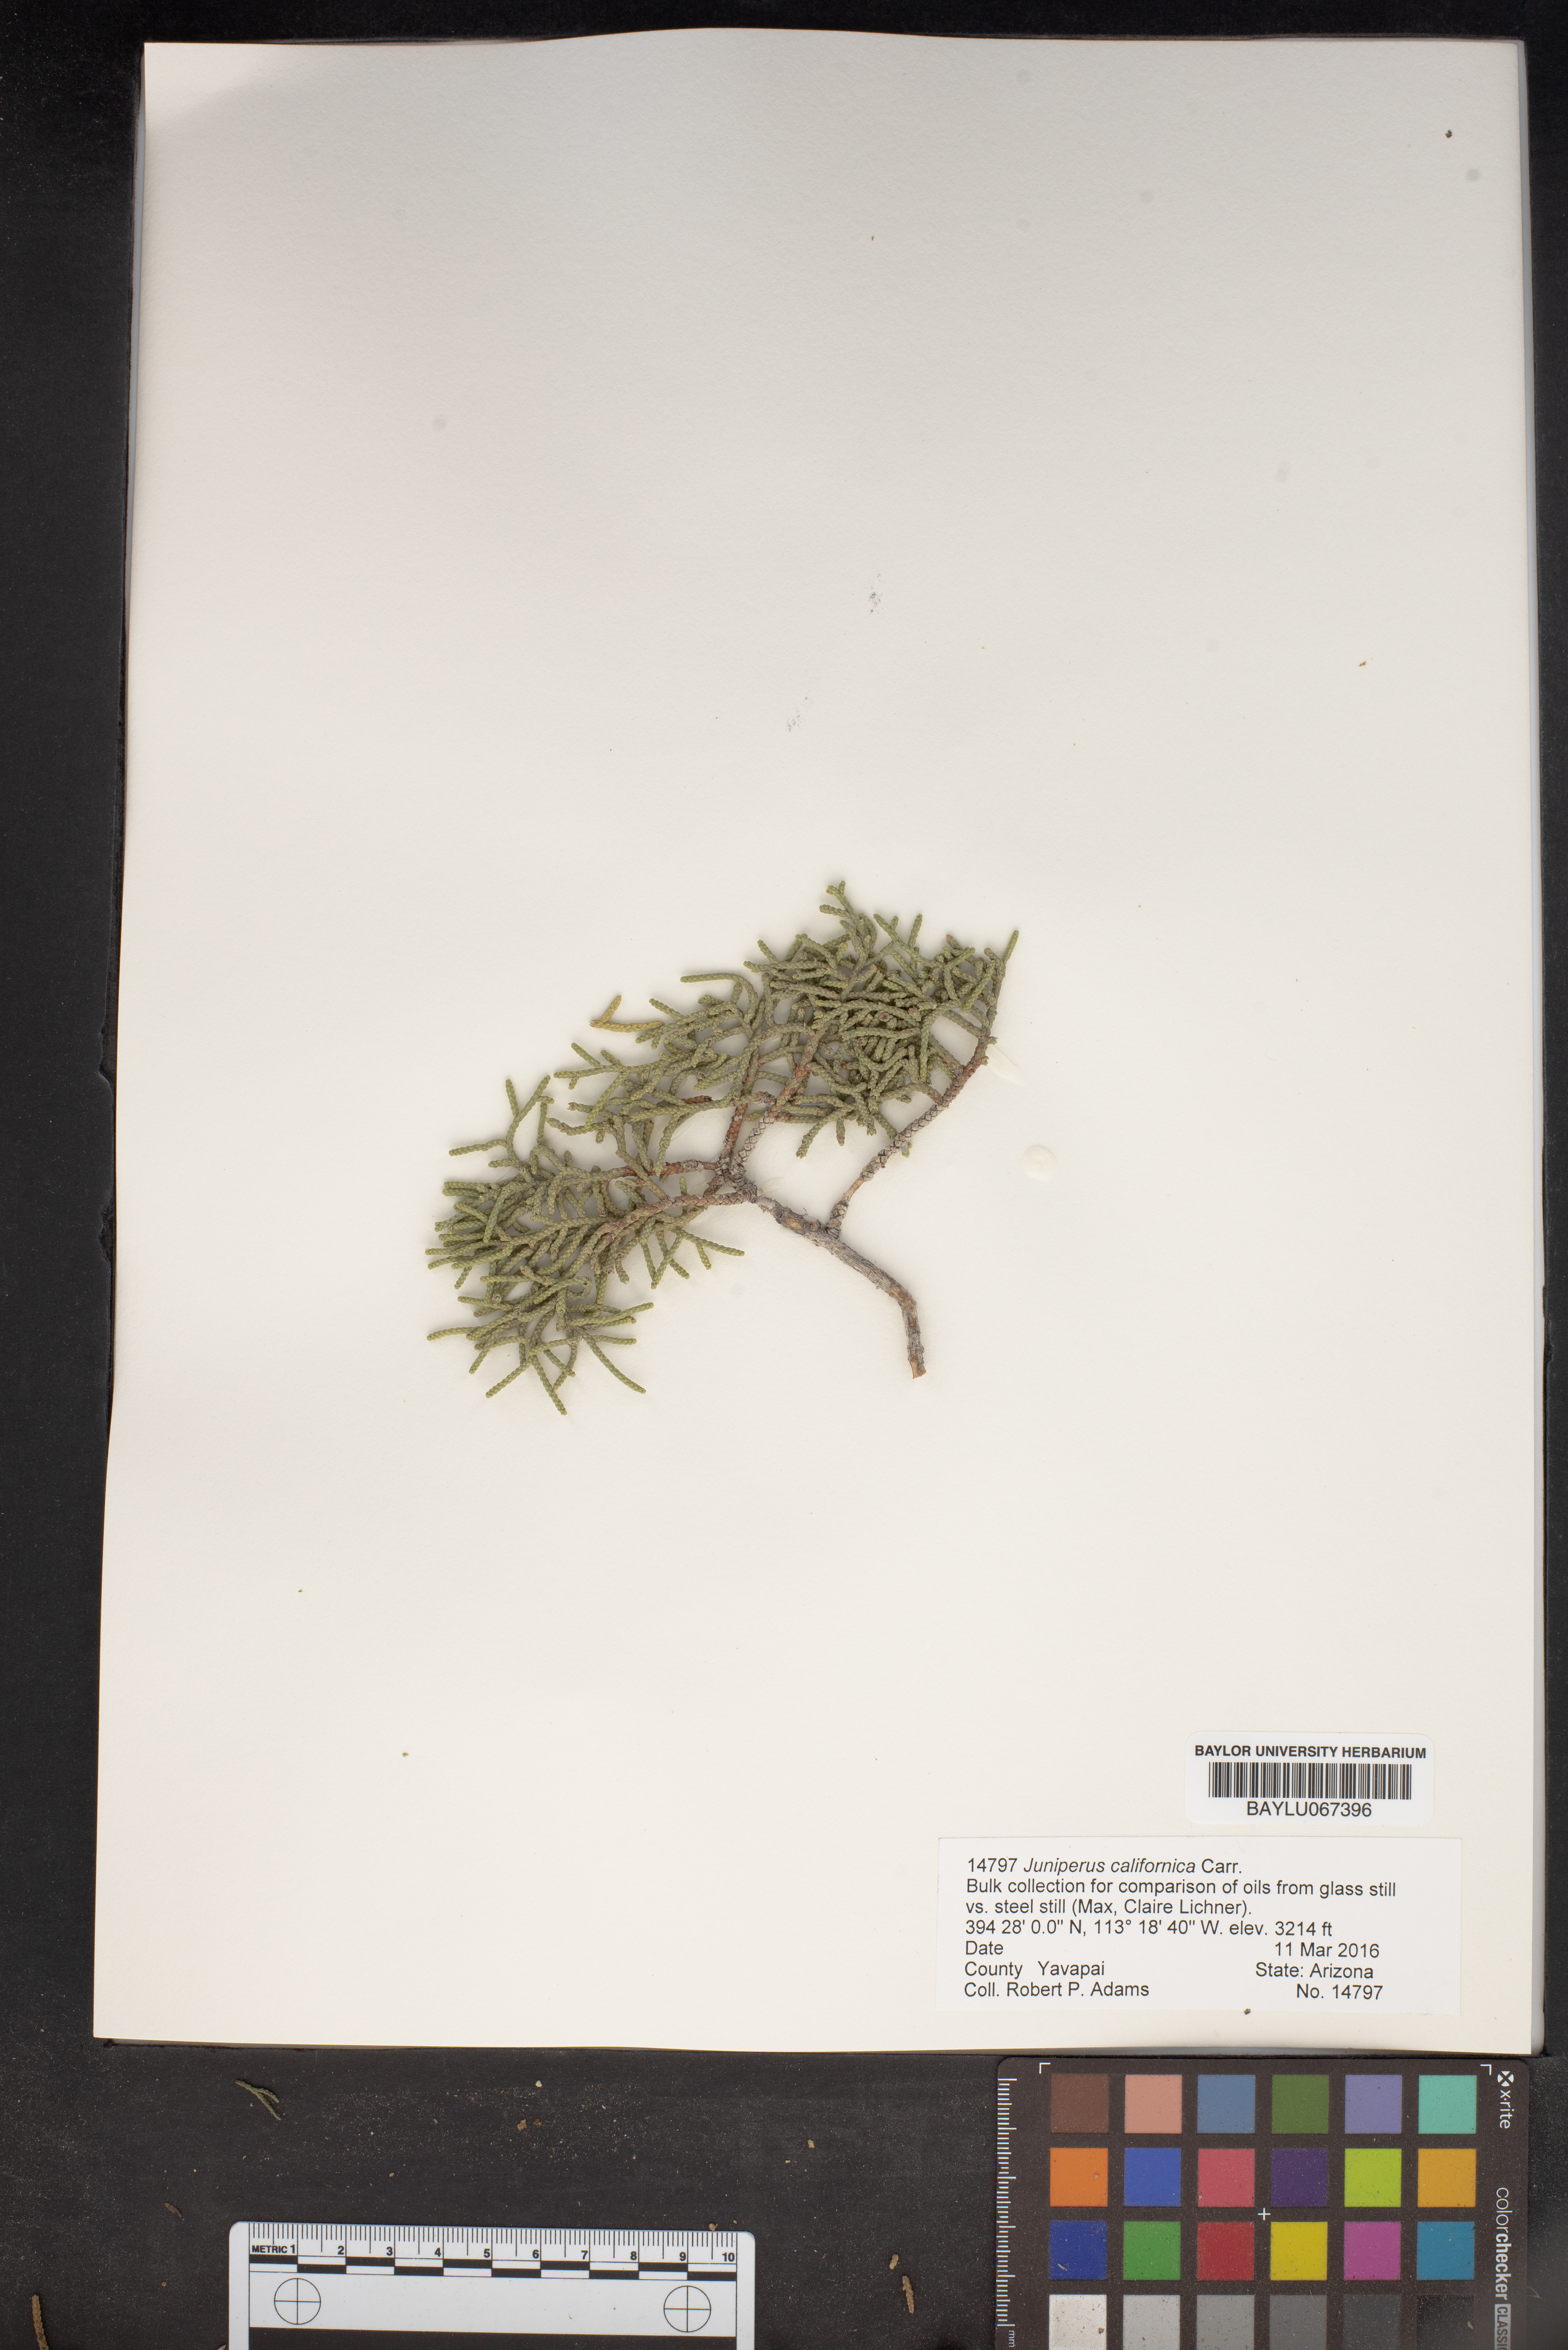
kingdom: Plantae
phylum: Tracheophyta
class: Pinopsida
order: Pinales
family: Cupressaceae
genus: Juniperus
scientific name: Juniperus californica
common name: California juniper
